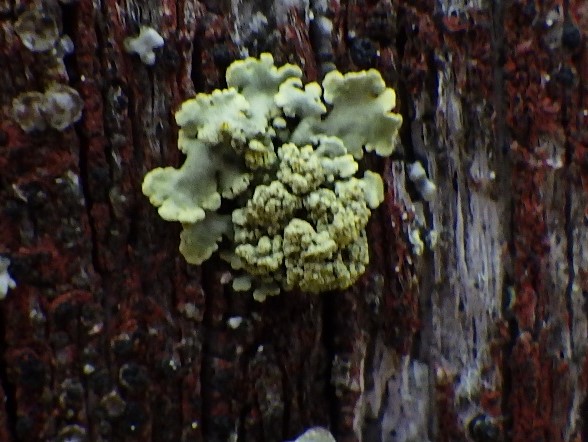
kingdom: Fungi
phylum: Ascomycota
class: Lecanoromycetes
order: Lecanorales
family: Parmeliaceae
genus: Vulpicida
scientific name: Vulpicida pinastri
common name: gul kruslav
